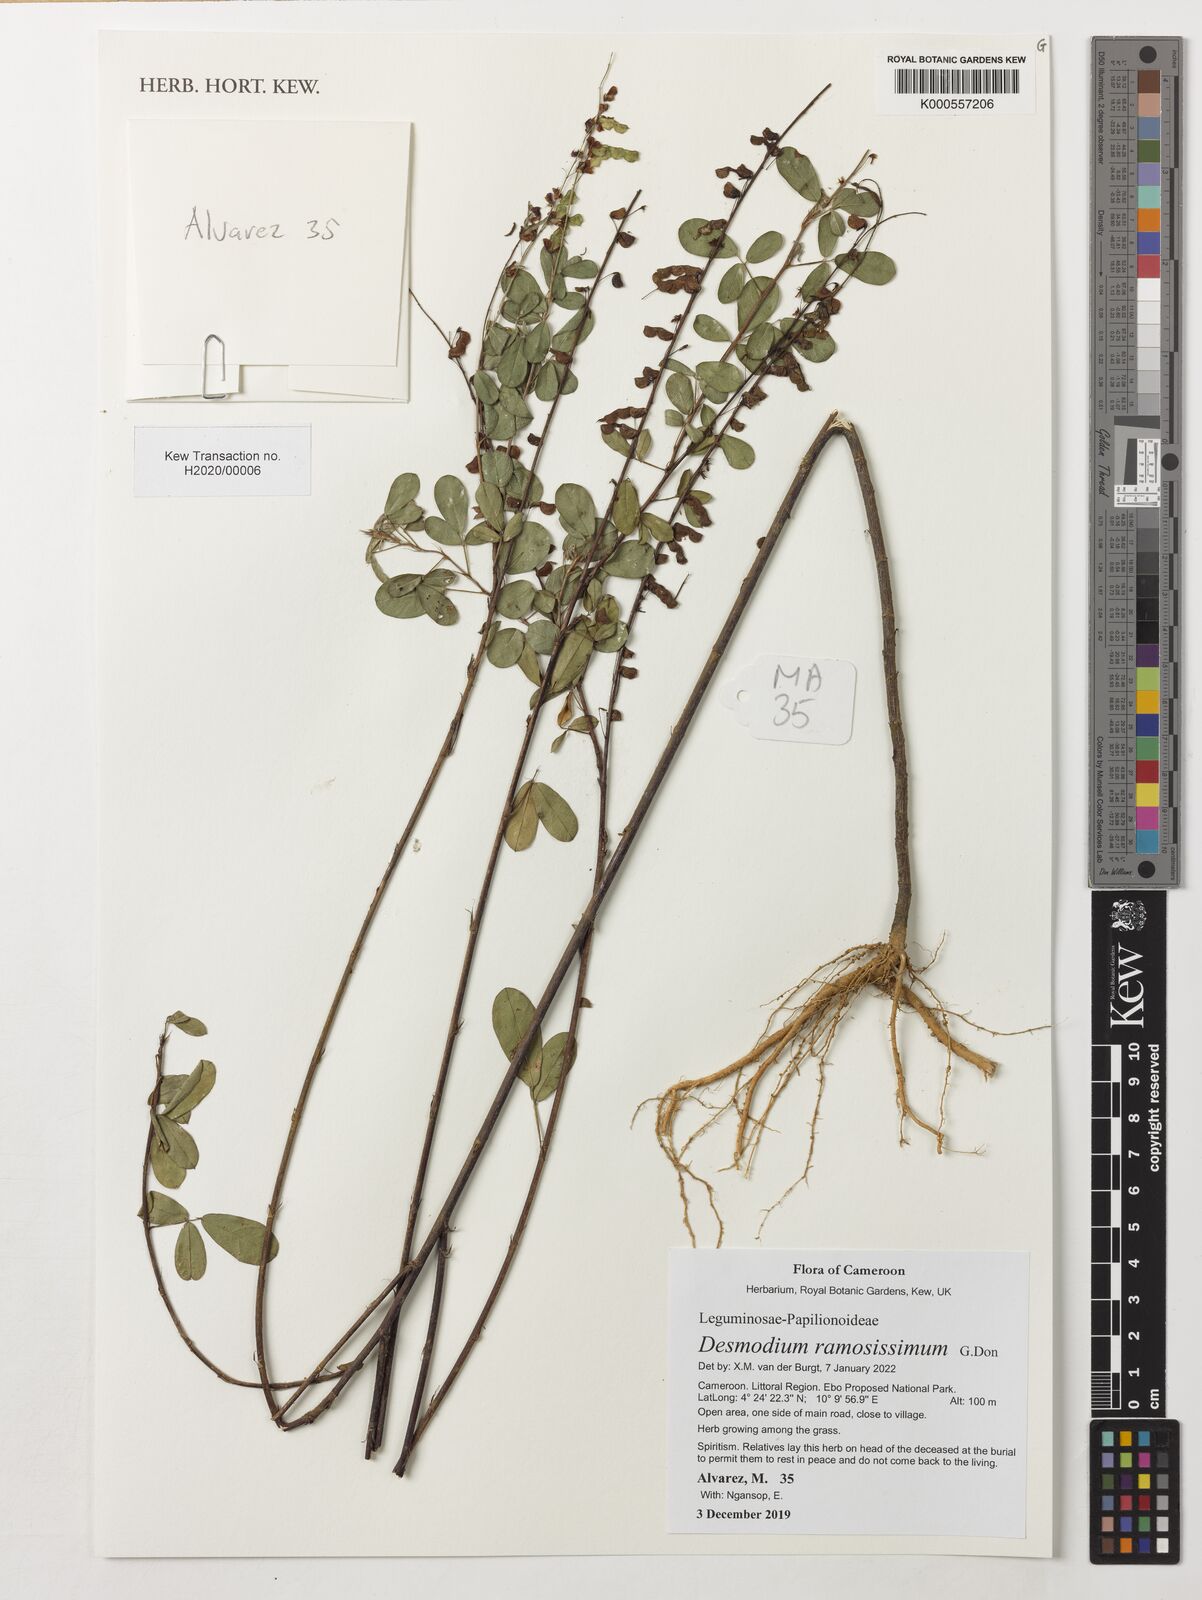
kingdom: Plantae
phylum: Tracheophyta
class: Magnoliopsida
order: Fabales
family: Fabaceae
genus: Grona
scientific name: Grona ramosissima
